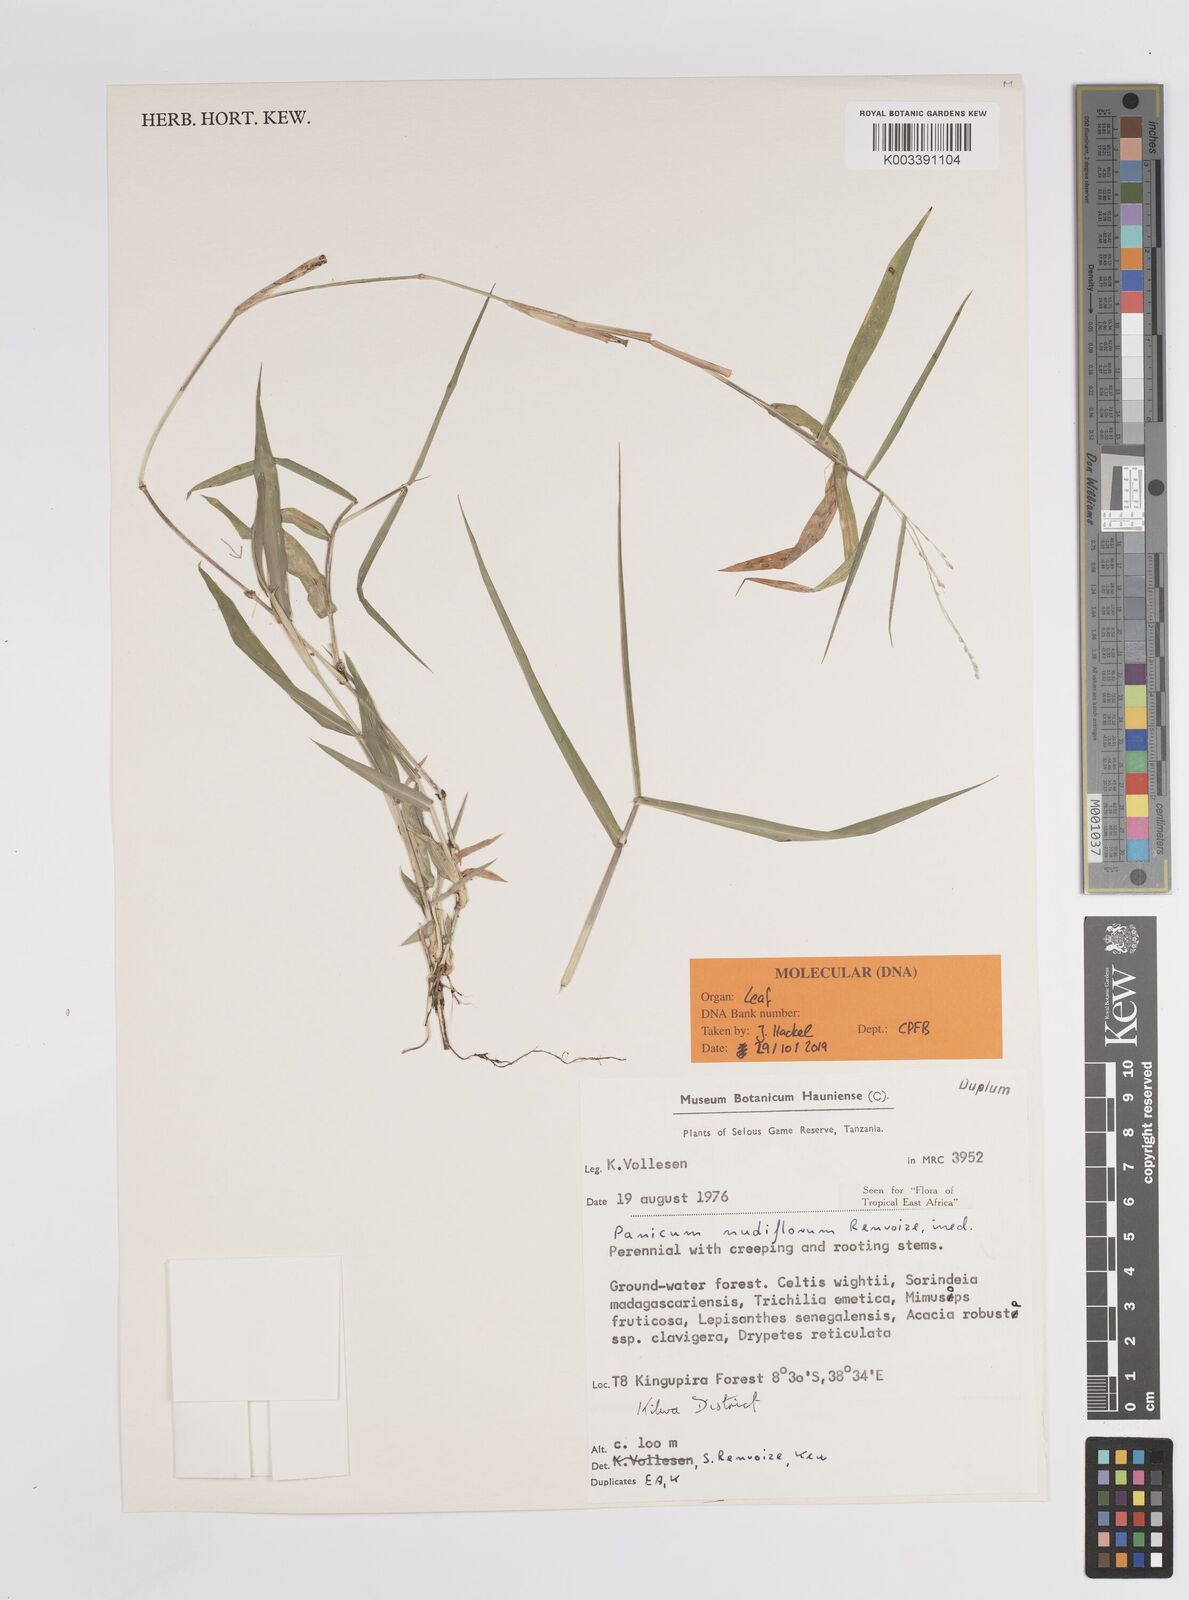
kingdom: Plantae
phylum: Tracheophyta
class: Liliopsida
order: Poales
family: Poaceae
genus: Panicum
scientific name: Panicum nudiflorum
